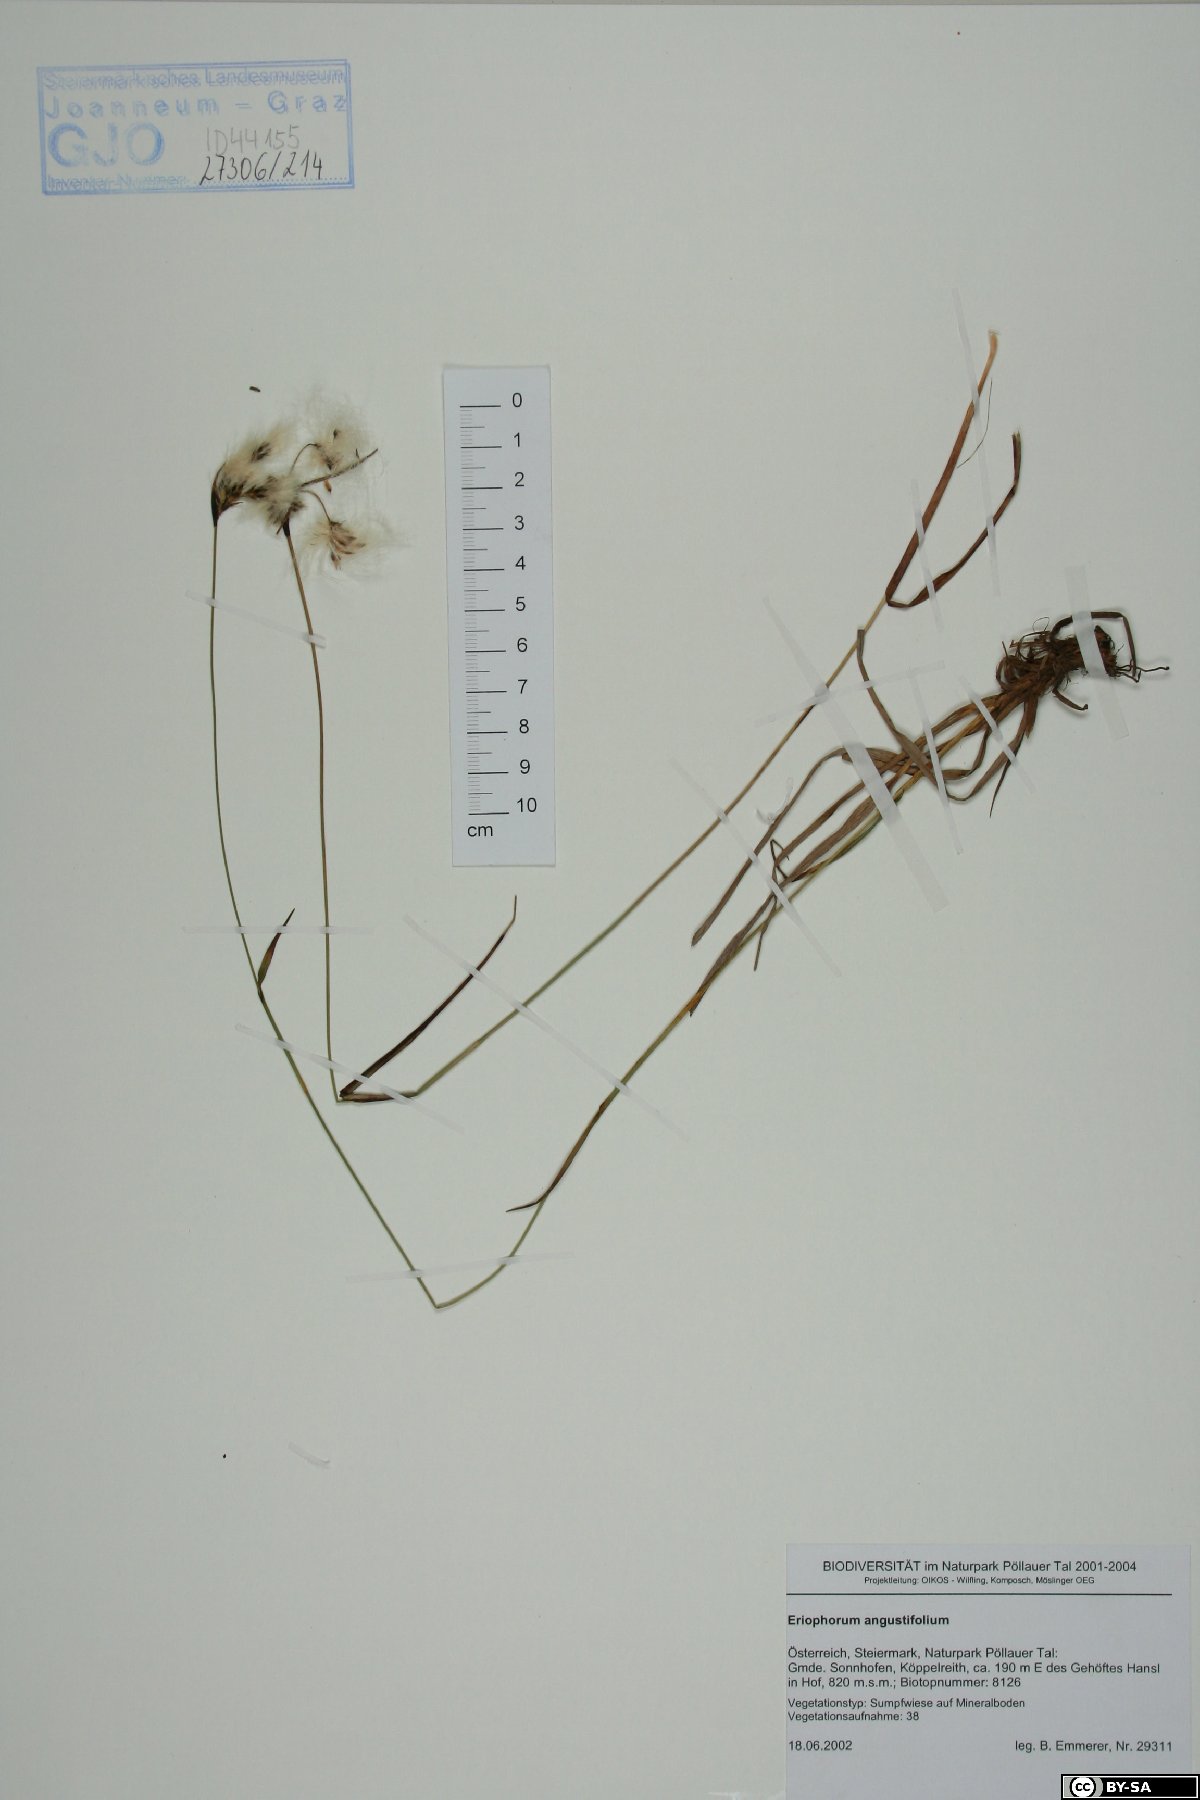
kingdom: Plantae
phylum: Tracheophyta
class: Liliopsida
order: Poales
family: Cyperaceae
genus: Eriophorum
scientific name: Eriophorum angustifolium
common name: Common cottongrass
